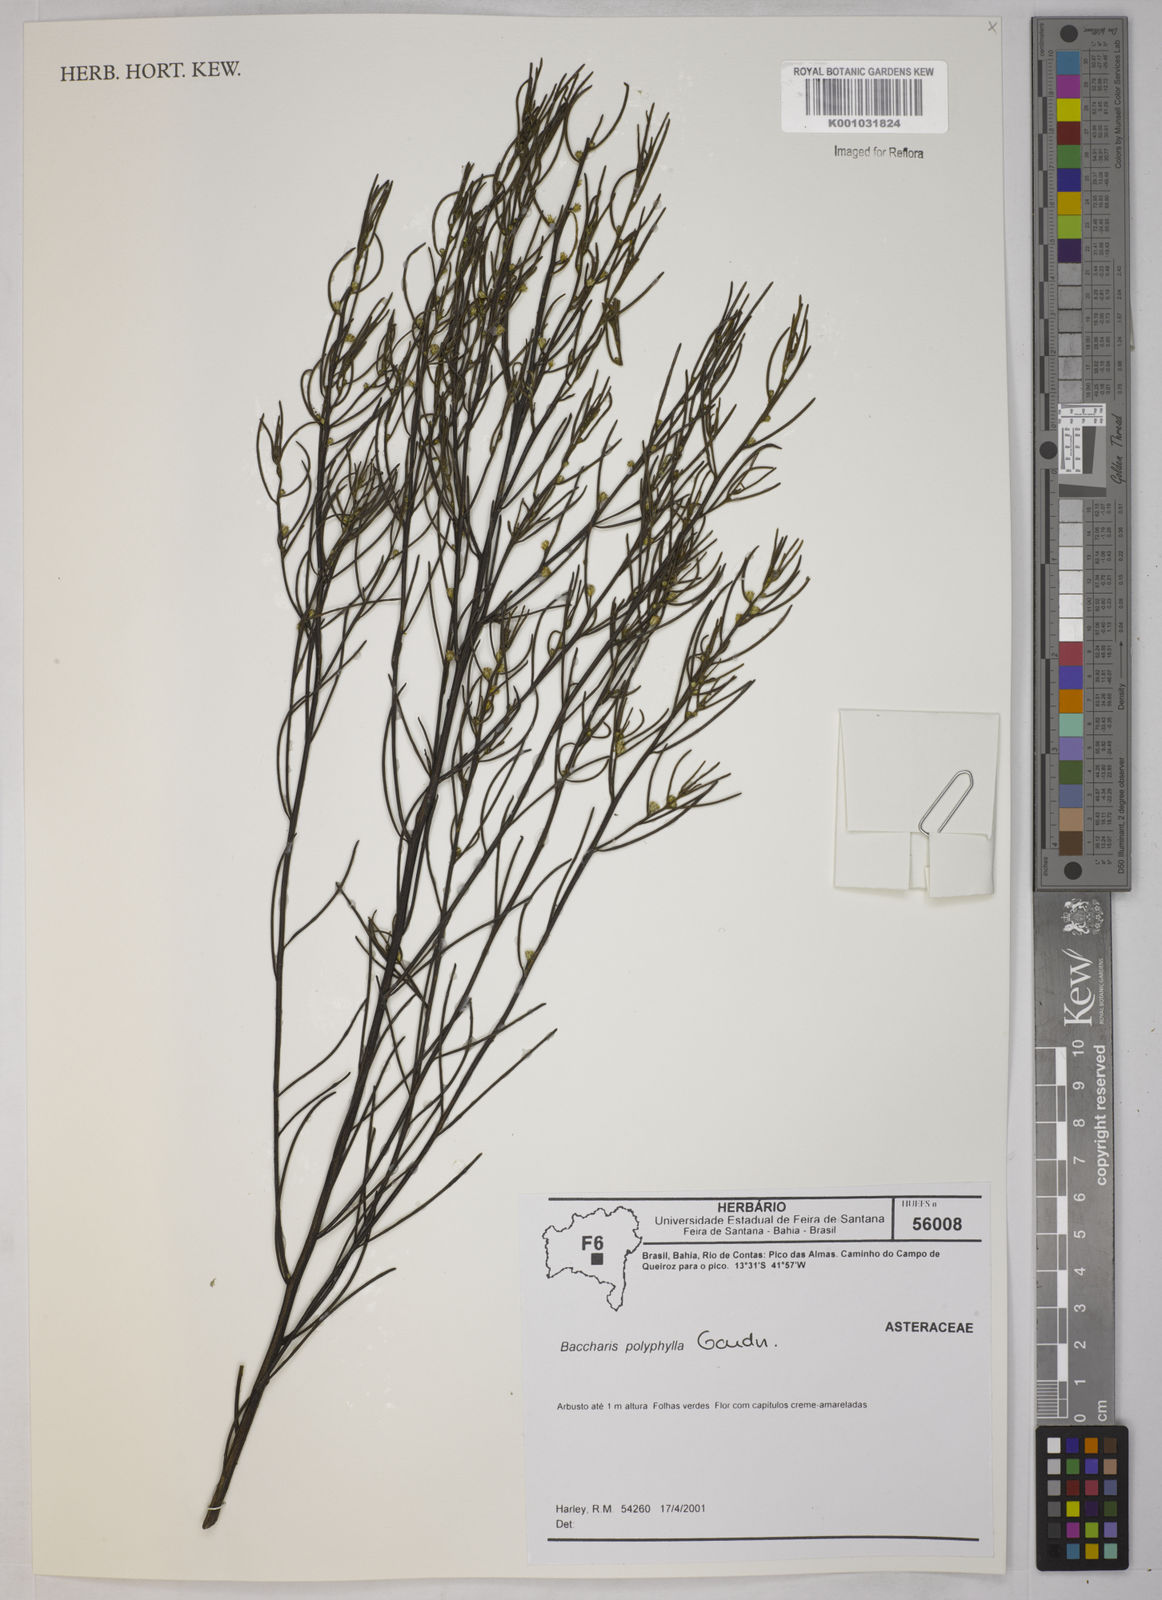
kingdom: Plantae
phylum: Tracheophyta
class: Magnoliopsida
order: Asterales
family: Asteraceae
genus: Baccharis
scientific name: Baccharis polyphylla
